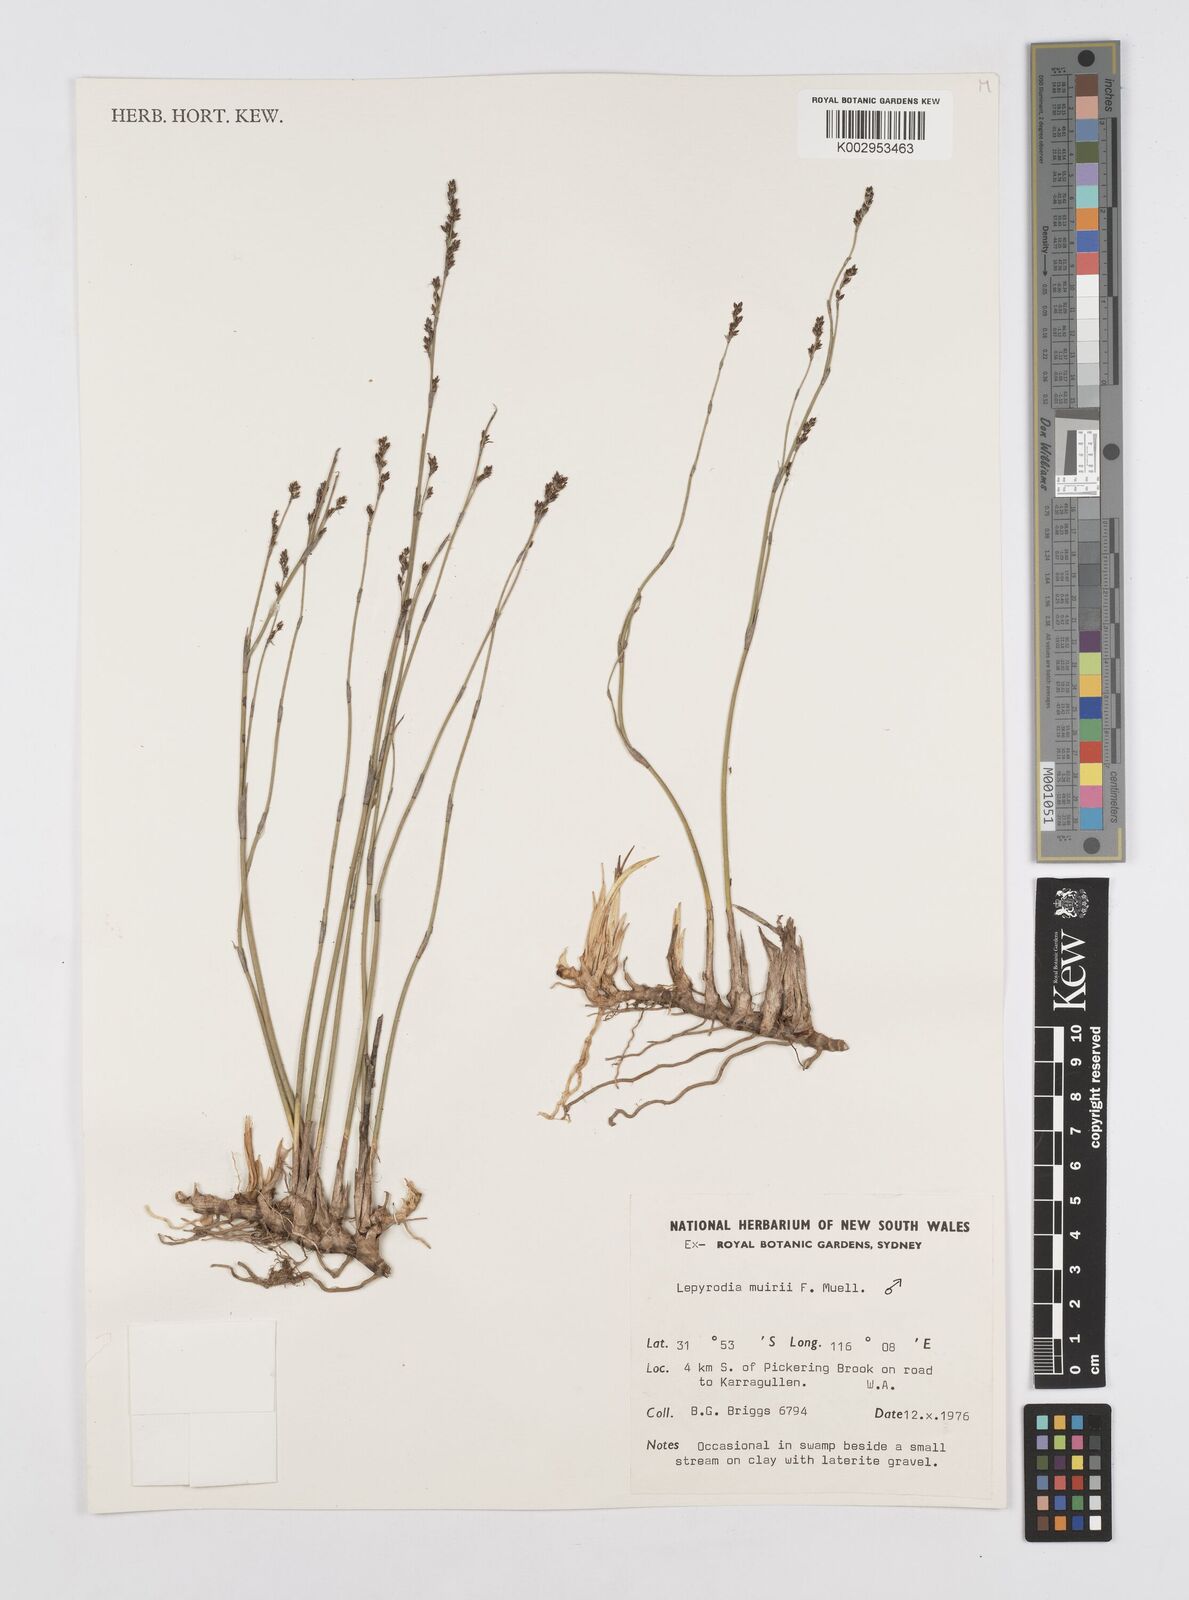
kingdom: Plantae
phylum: Tracheophyta
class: Liliopsida
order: Poales
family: Restionaceae
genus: Lepyrodia
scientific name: Lepyrodia muirii
